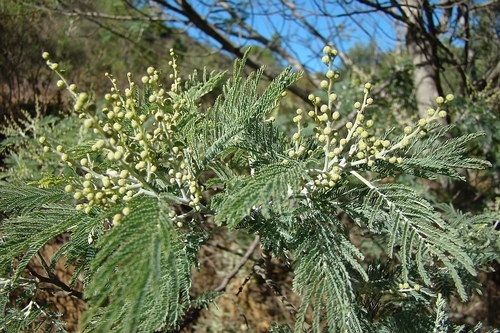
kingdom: Plantae
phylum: Tracheophyta
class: Magnoliopsida
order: Fabales
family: Fabaceae
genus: Acacia
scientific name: Acacia dealbata
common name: Silver wattle
